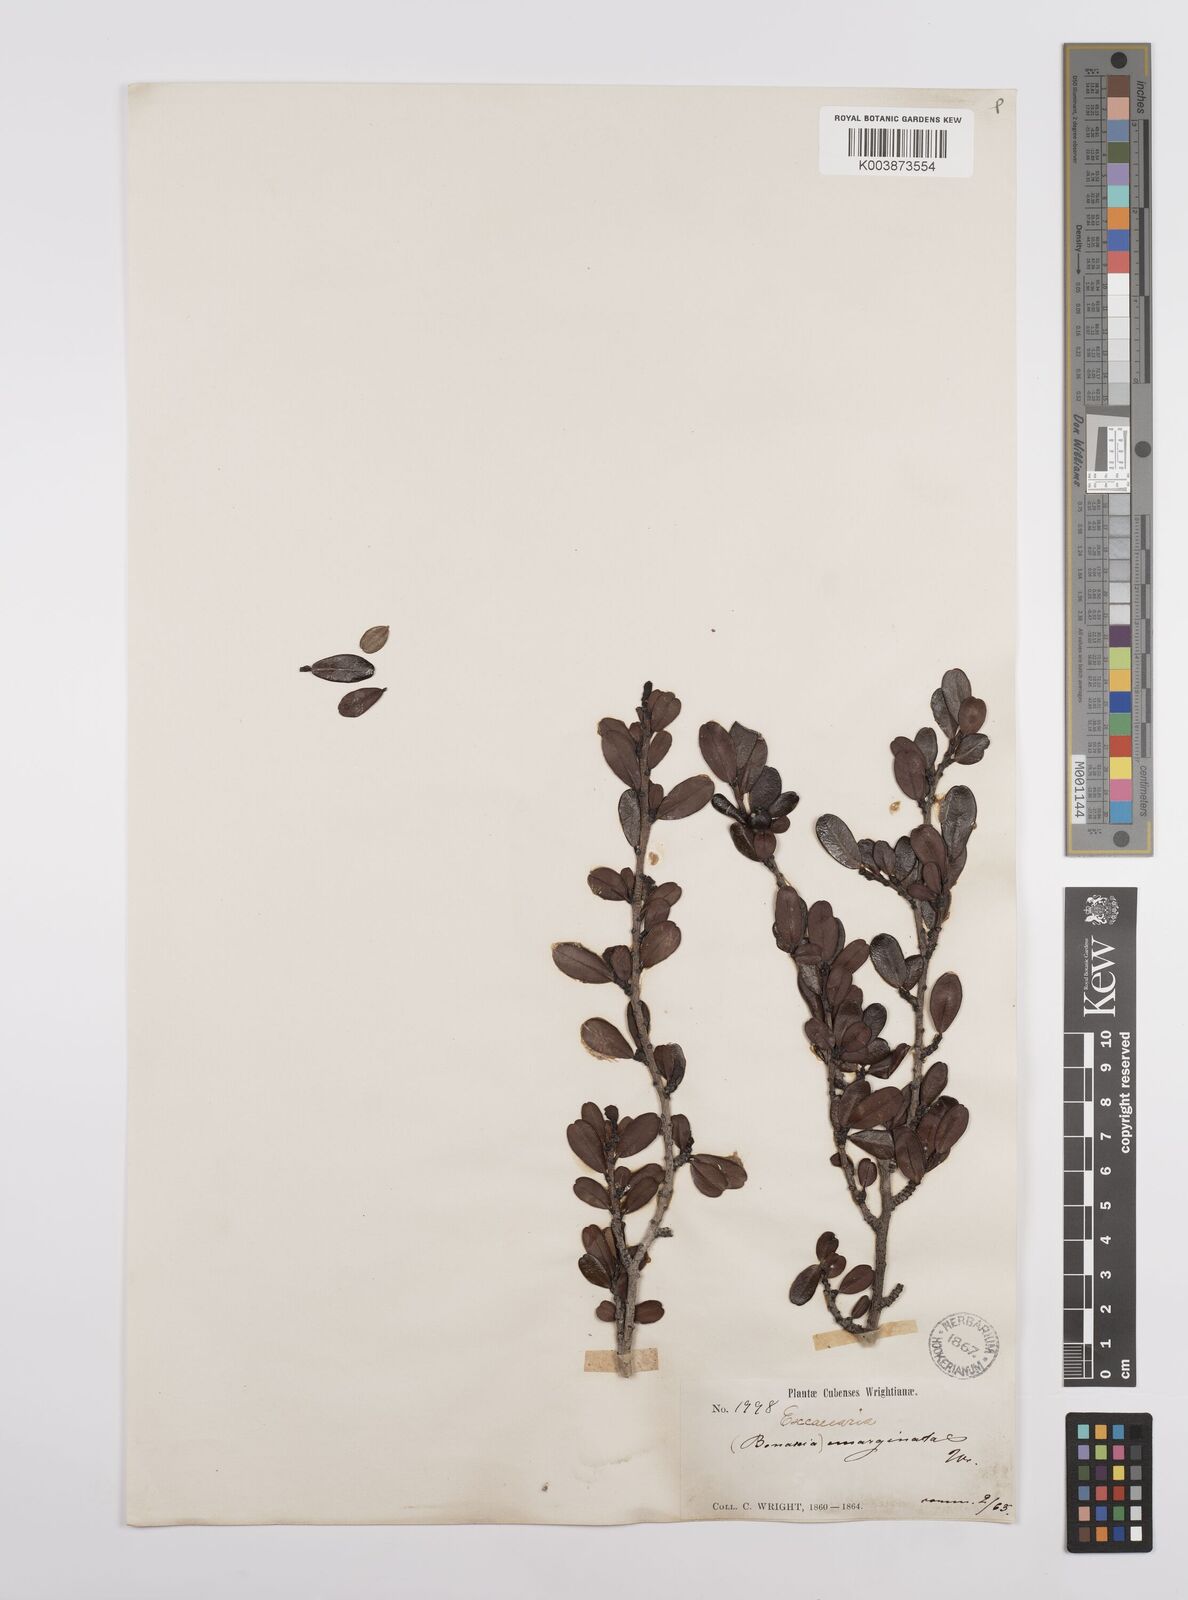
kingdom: Plantae
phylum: Tracheophyta
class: Magnoliopsida
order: Malpighiales
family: Euphorbiaceae
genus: Bonania
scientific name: Bonania emarginata
